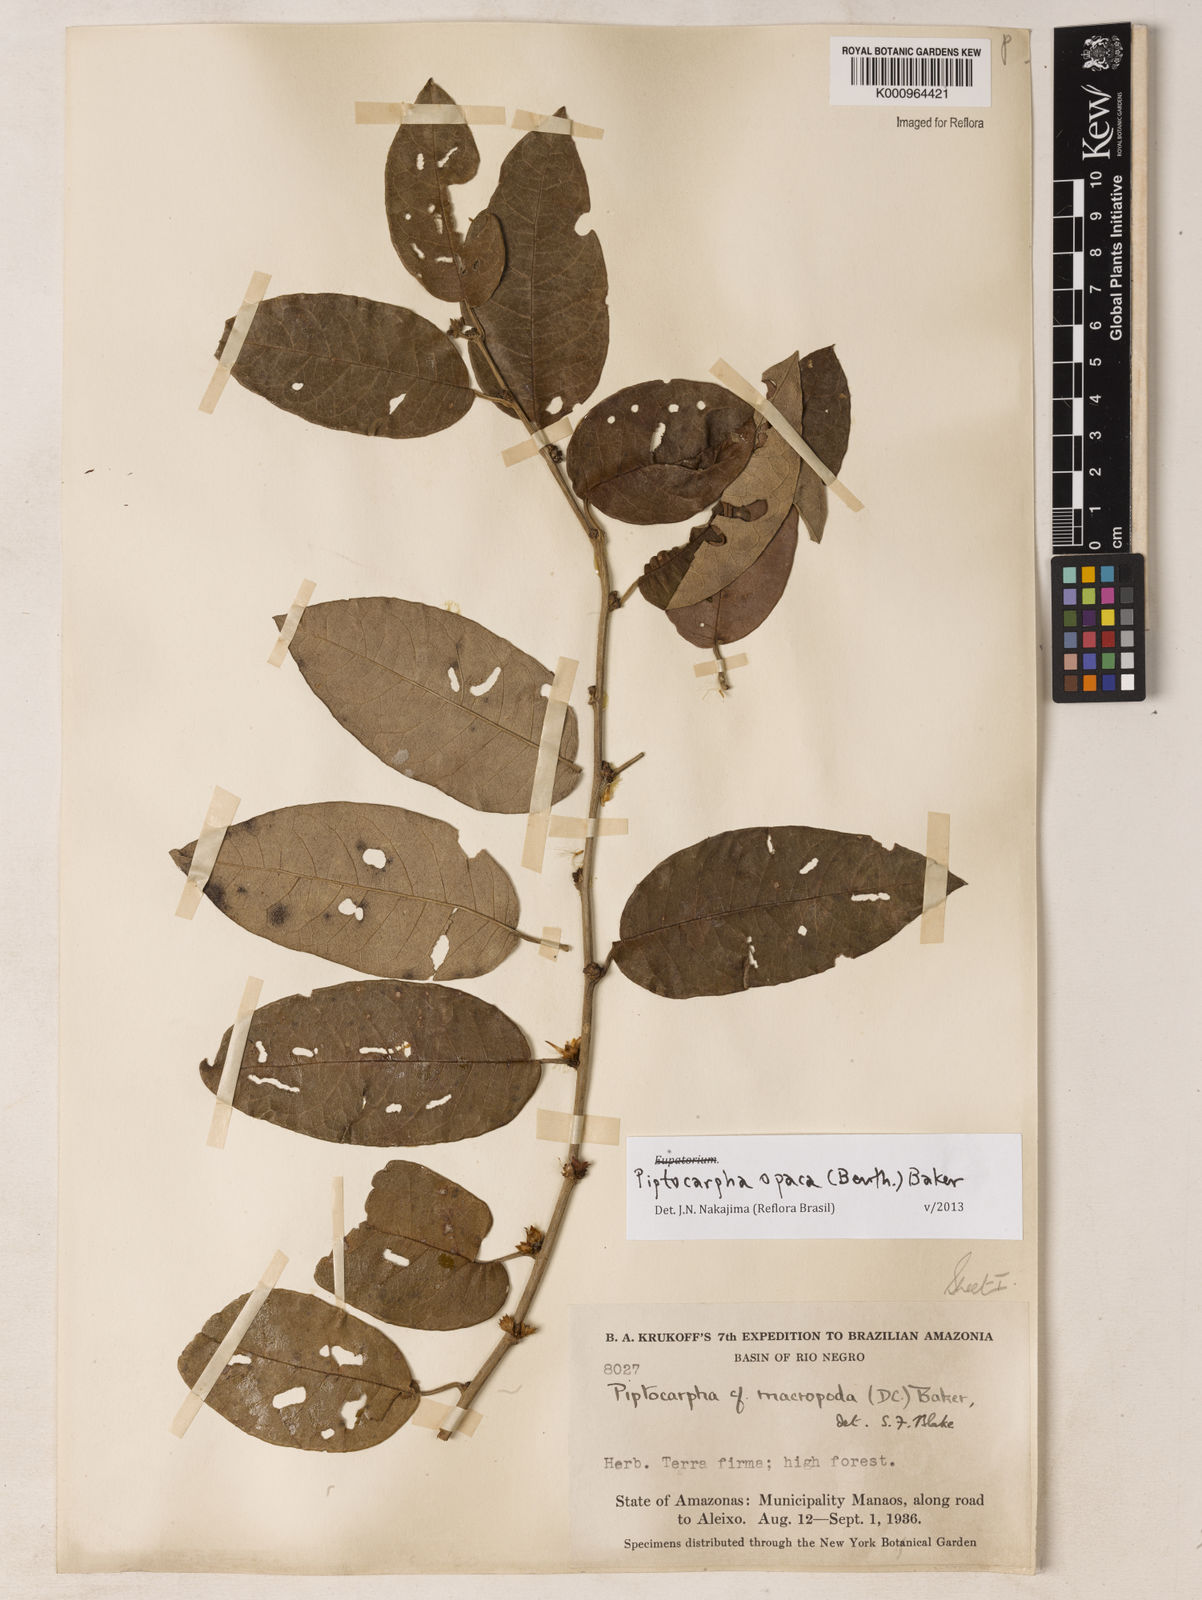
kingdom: Plantae
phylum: Tracheophyta
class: Magnoliopsida
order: Asterales
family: Asteraceae
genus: Piptocarpha
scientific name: Piptocarpha opaca
